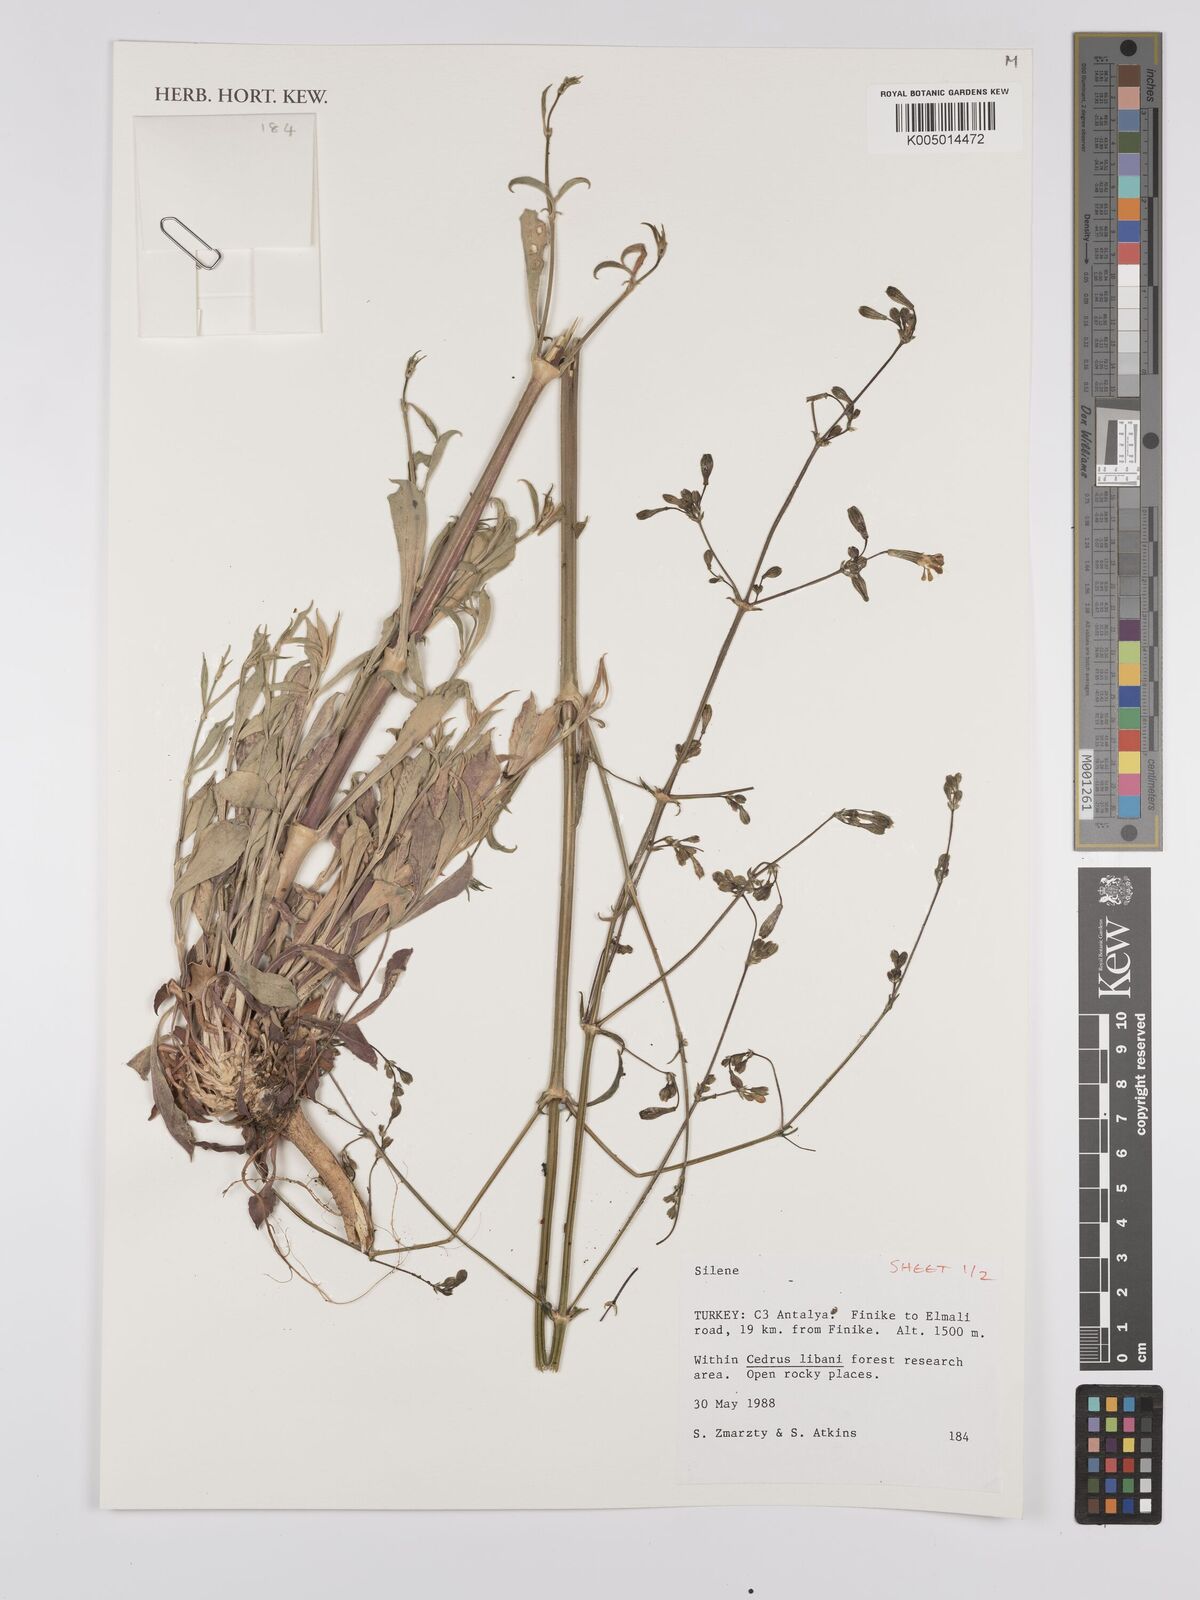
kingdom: Plantae
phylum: Tracheophyta
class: Magnoliopsida
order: Caryophyllales
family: Caryophyllaceae
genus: Silene
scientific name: Silene
